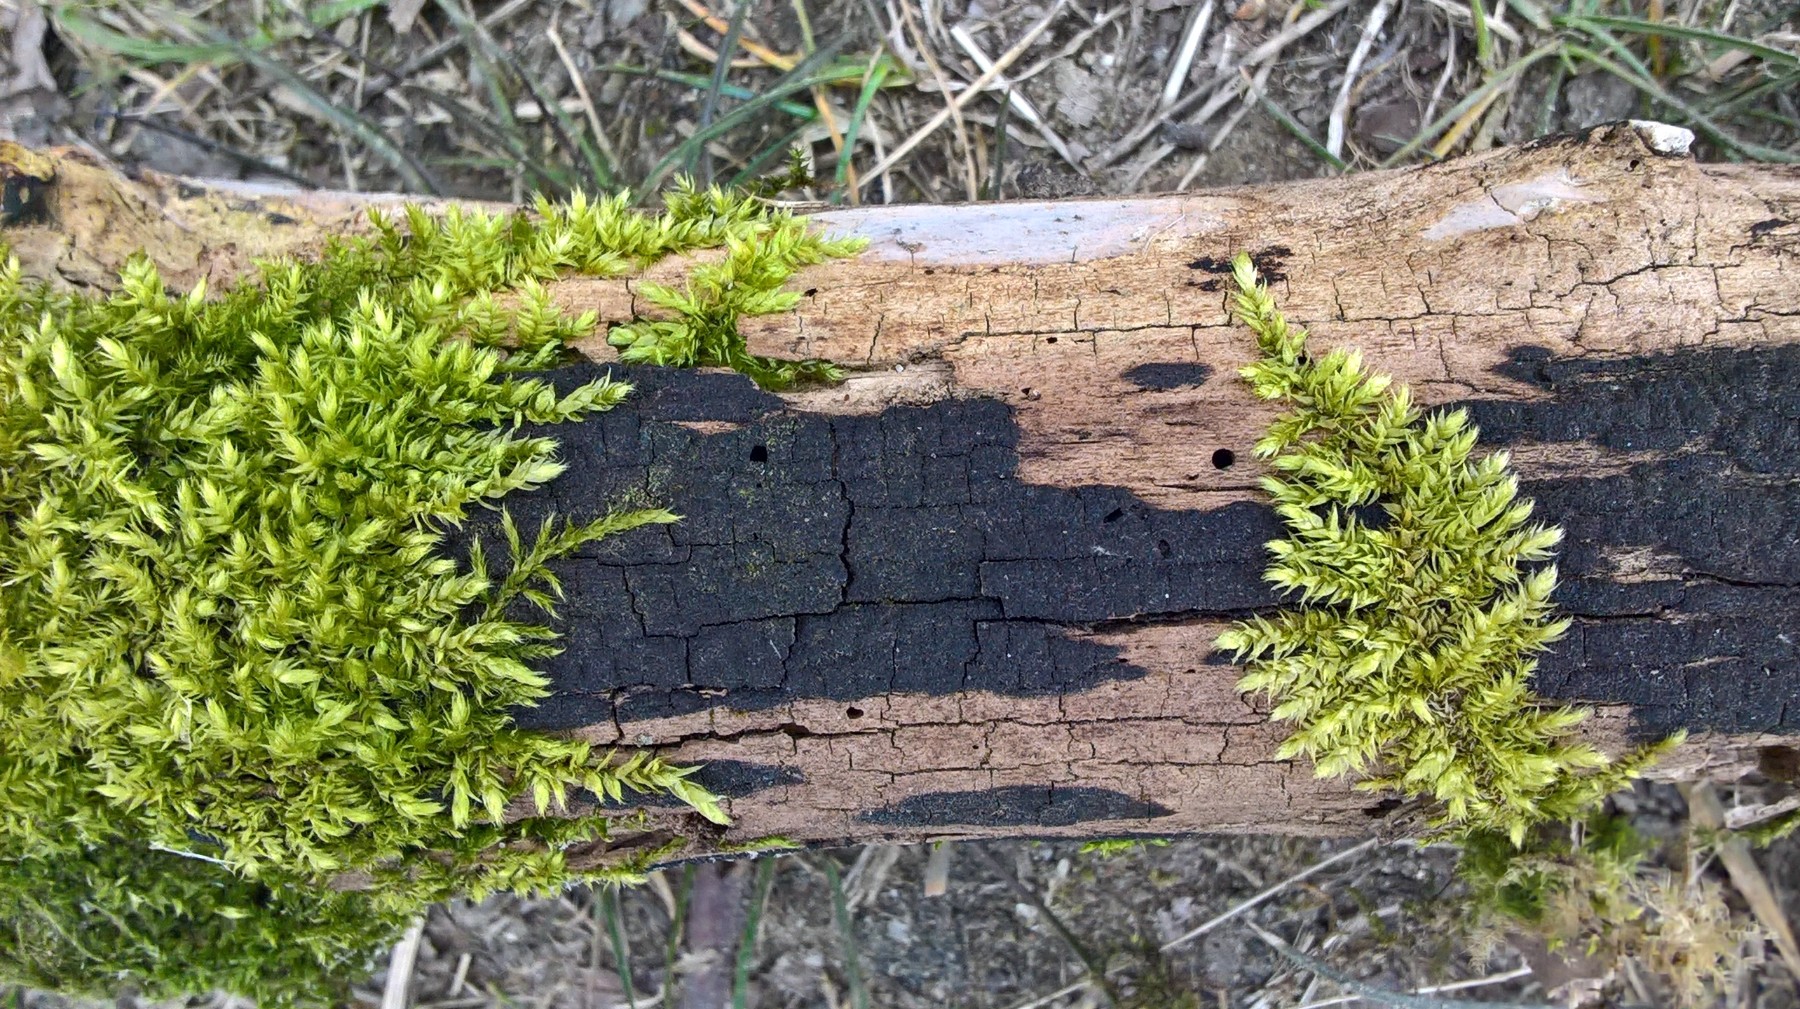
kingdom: Fungi
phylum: Ascomycota
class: Sordariomycetes
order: Xylariales
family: Diatrypaceae
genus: Eutypa
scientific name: Eutypa
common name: kulskorpe
